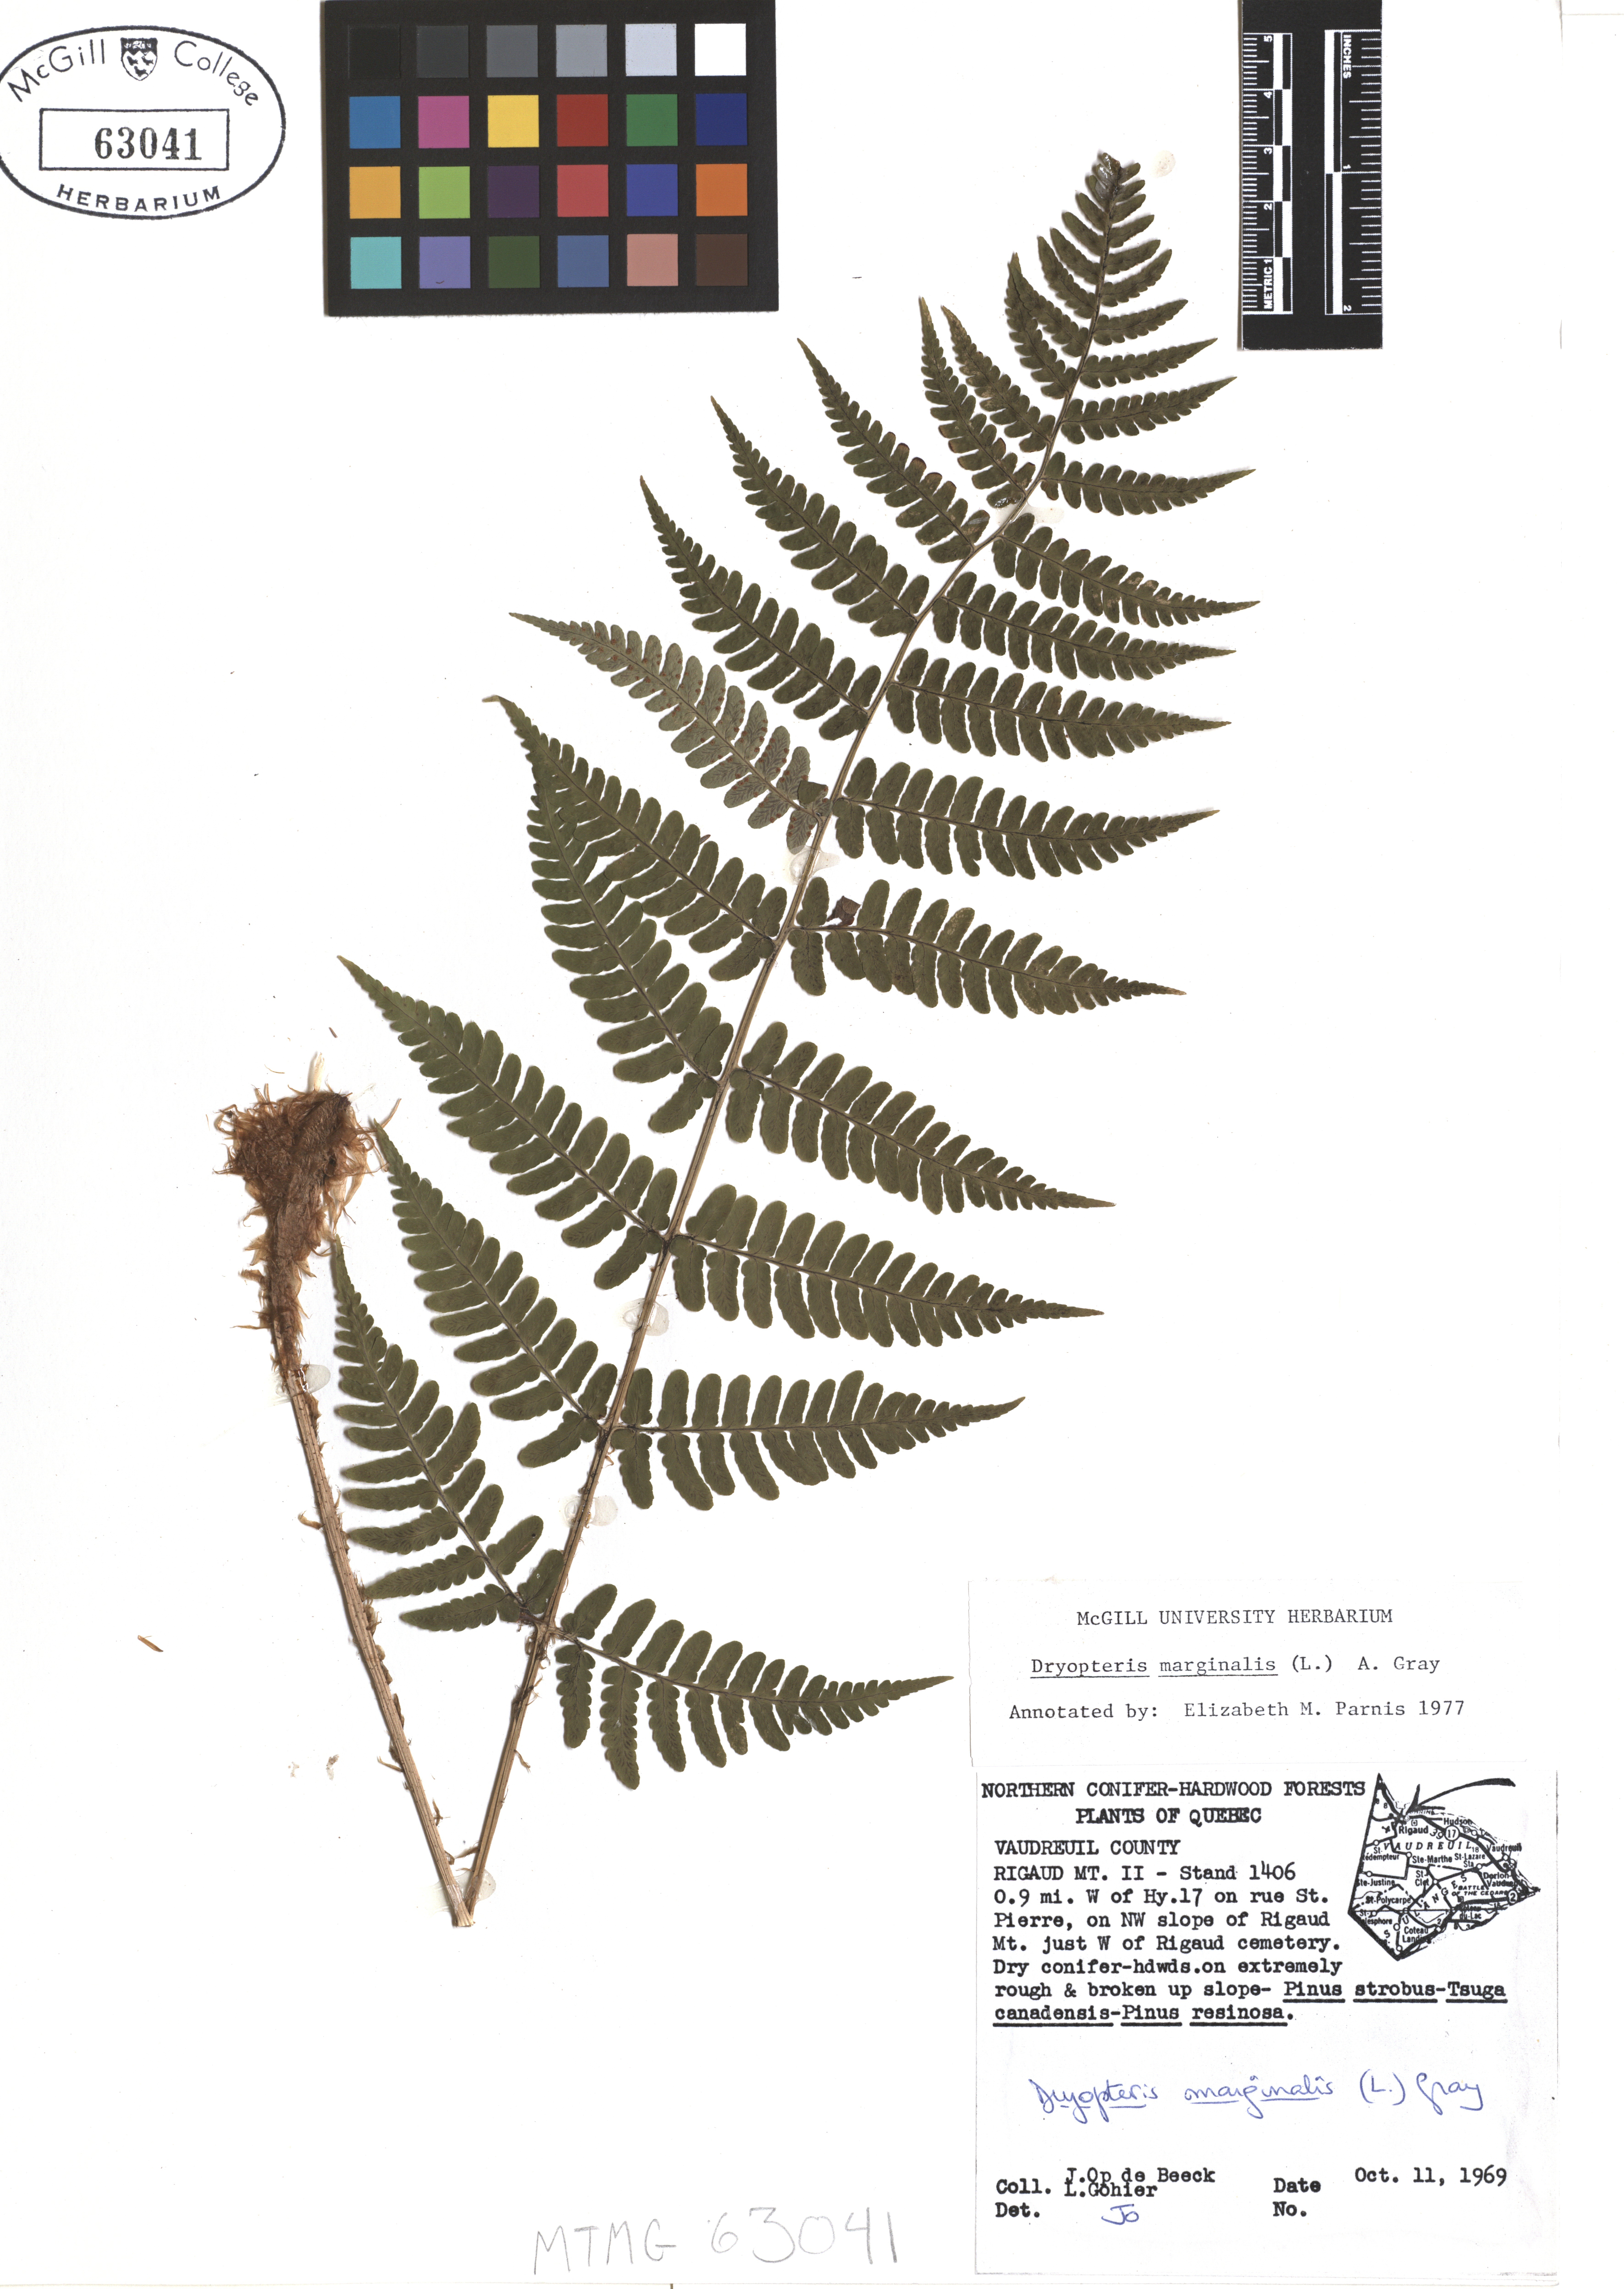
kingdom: Plantae
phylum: Tracheophyta
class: Polypodiopsida
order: Polypodiales
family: Dryopteridaceae
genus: Dryopteris
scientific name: Dryopteris marginalis
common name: Marginal wood fern
